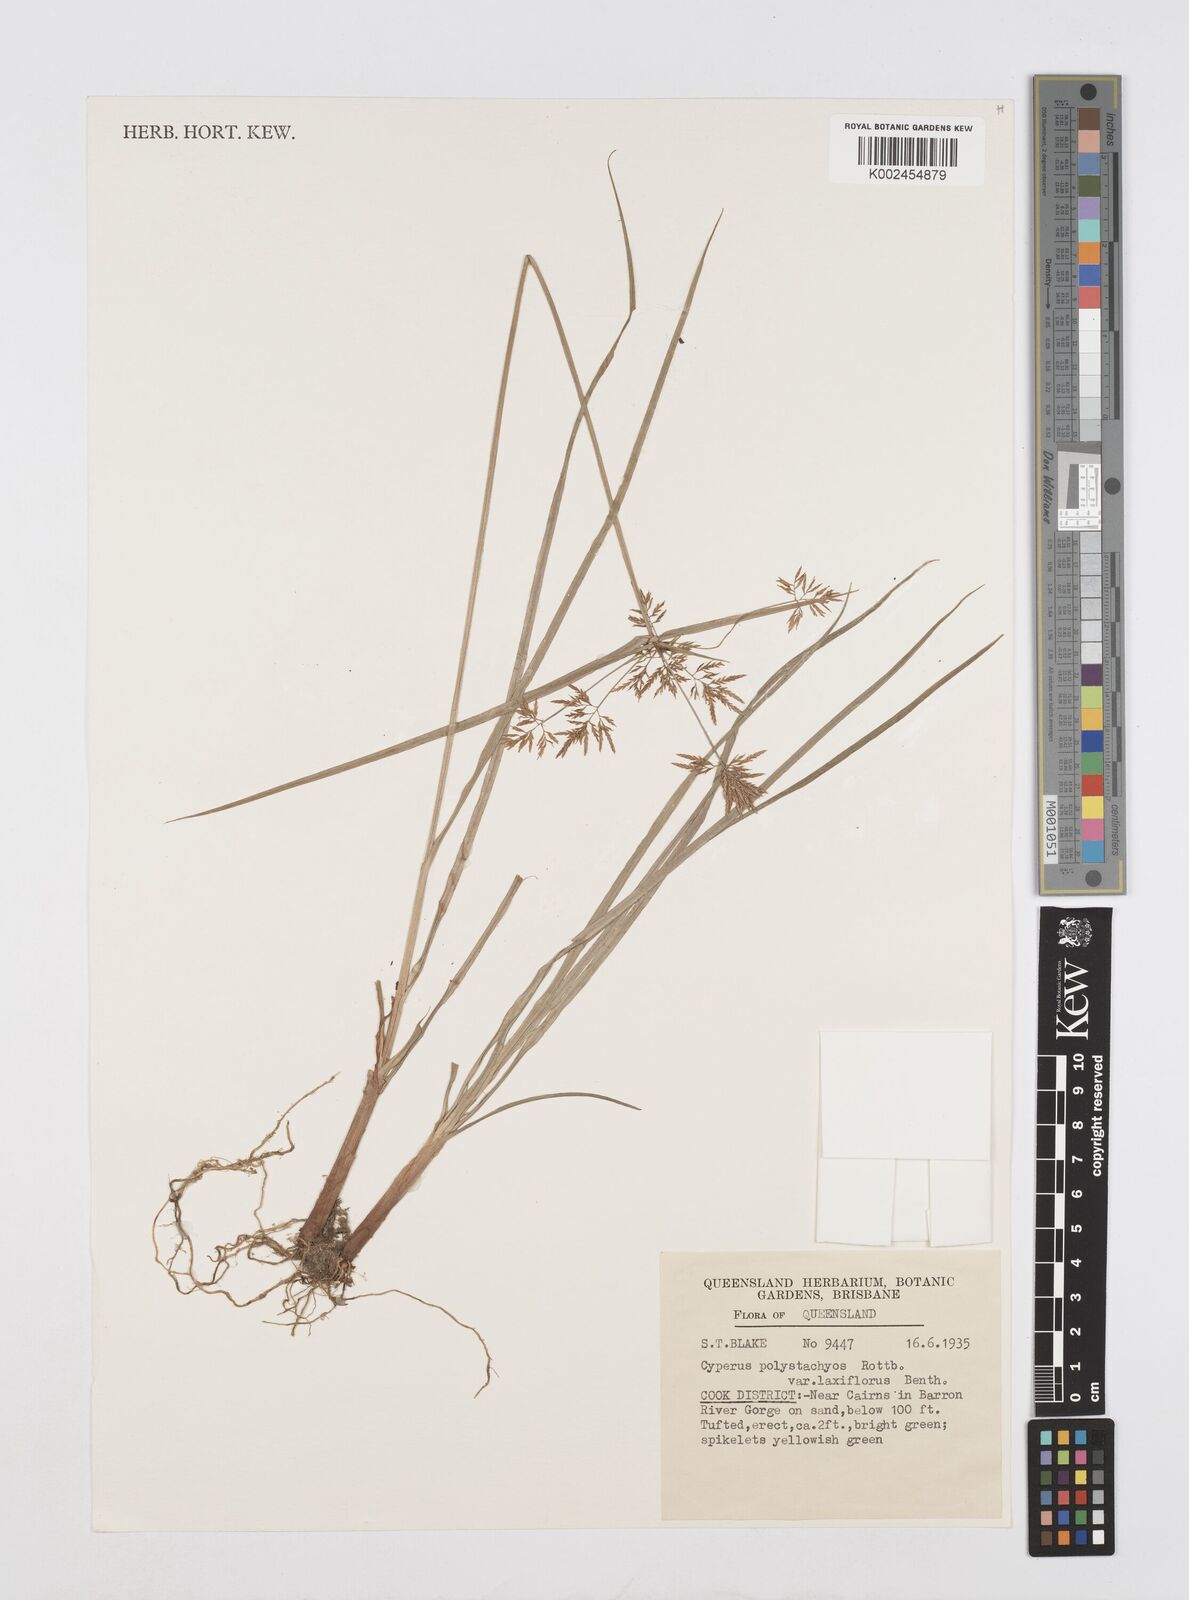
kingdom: Plantae
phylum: Tracheophyta
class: Liliopsida
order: Poales
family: Cyperaceae
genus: Cyperus
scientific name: Cyperus polystachyos
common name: Bunchy flat sedge
